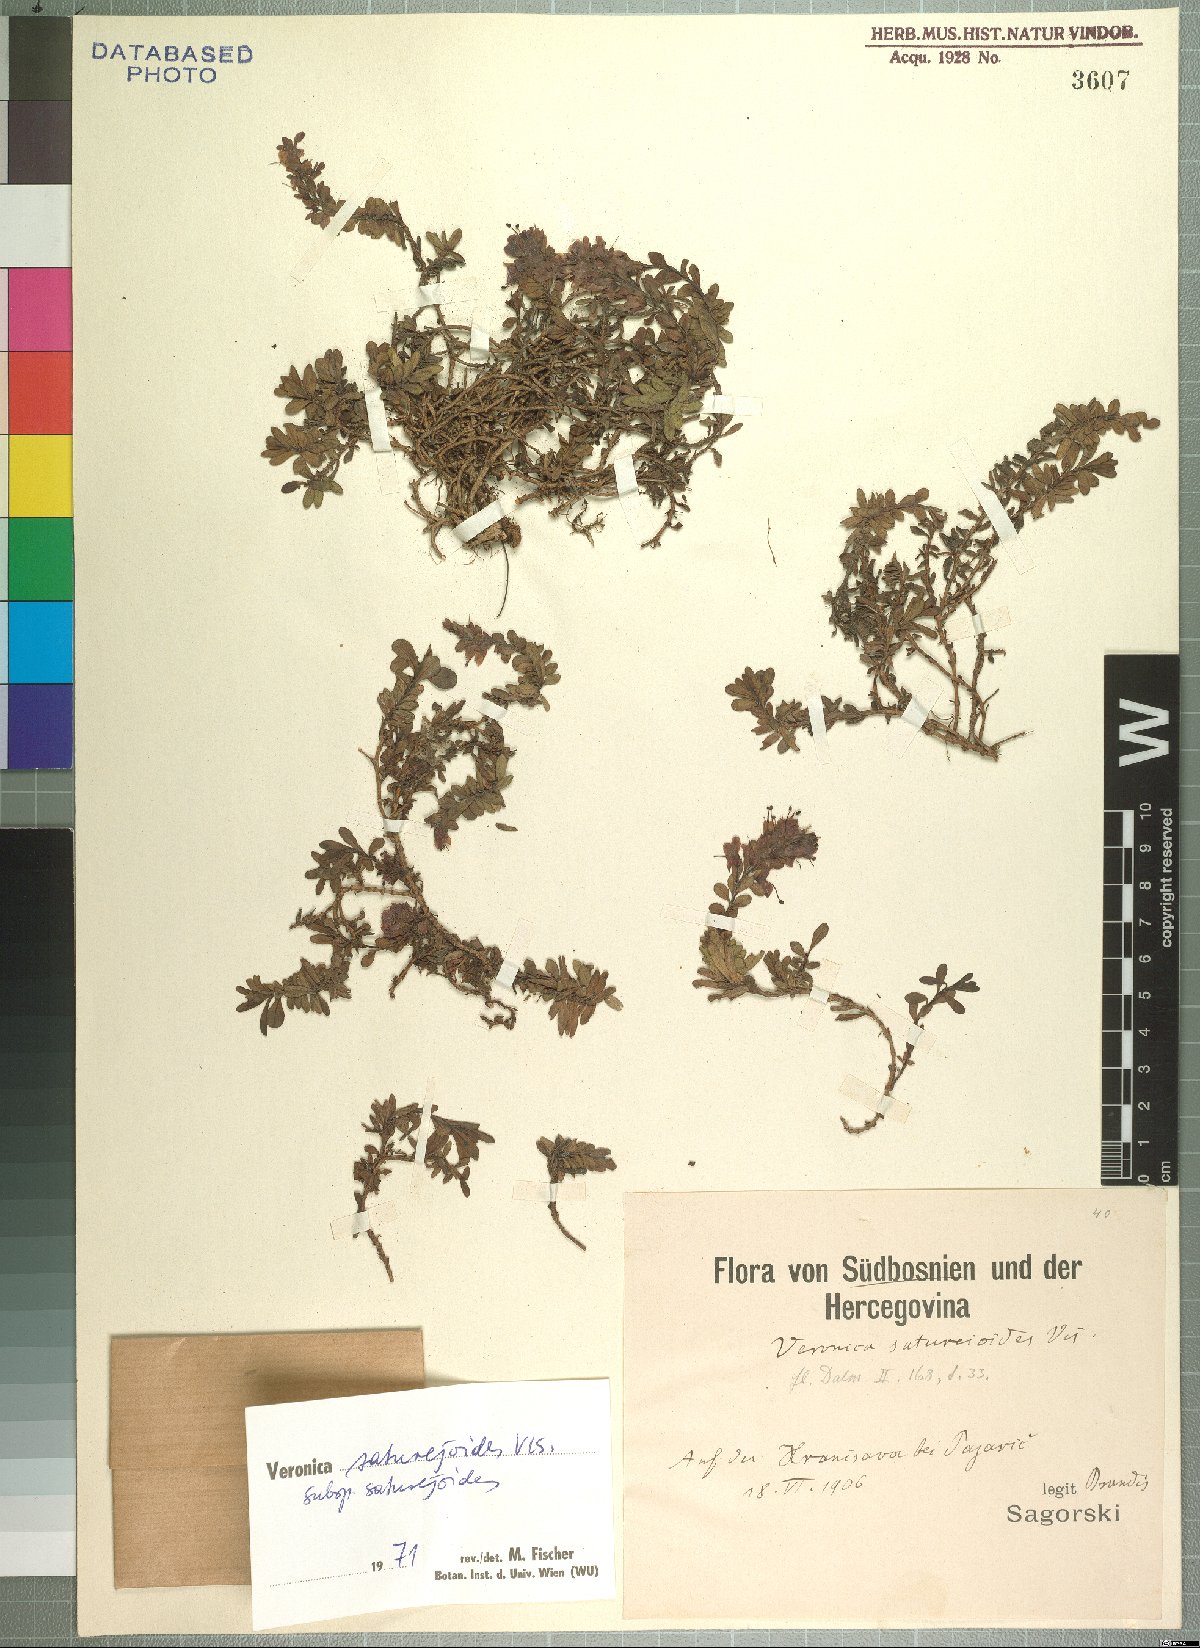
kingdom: Plantae
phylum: Tracheophyta
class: Magnoliopsida
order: Lamiales
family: Plantaginaceae
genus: Veronica
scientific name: Veronica saturejoides
